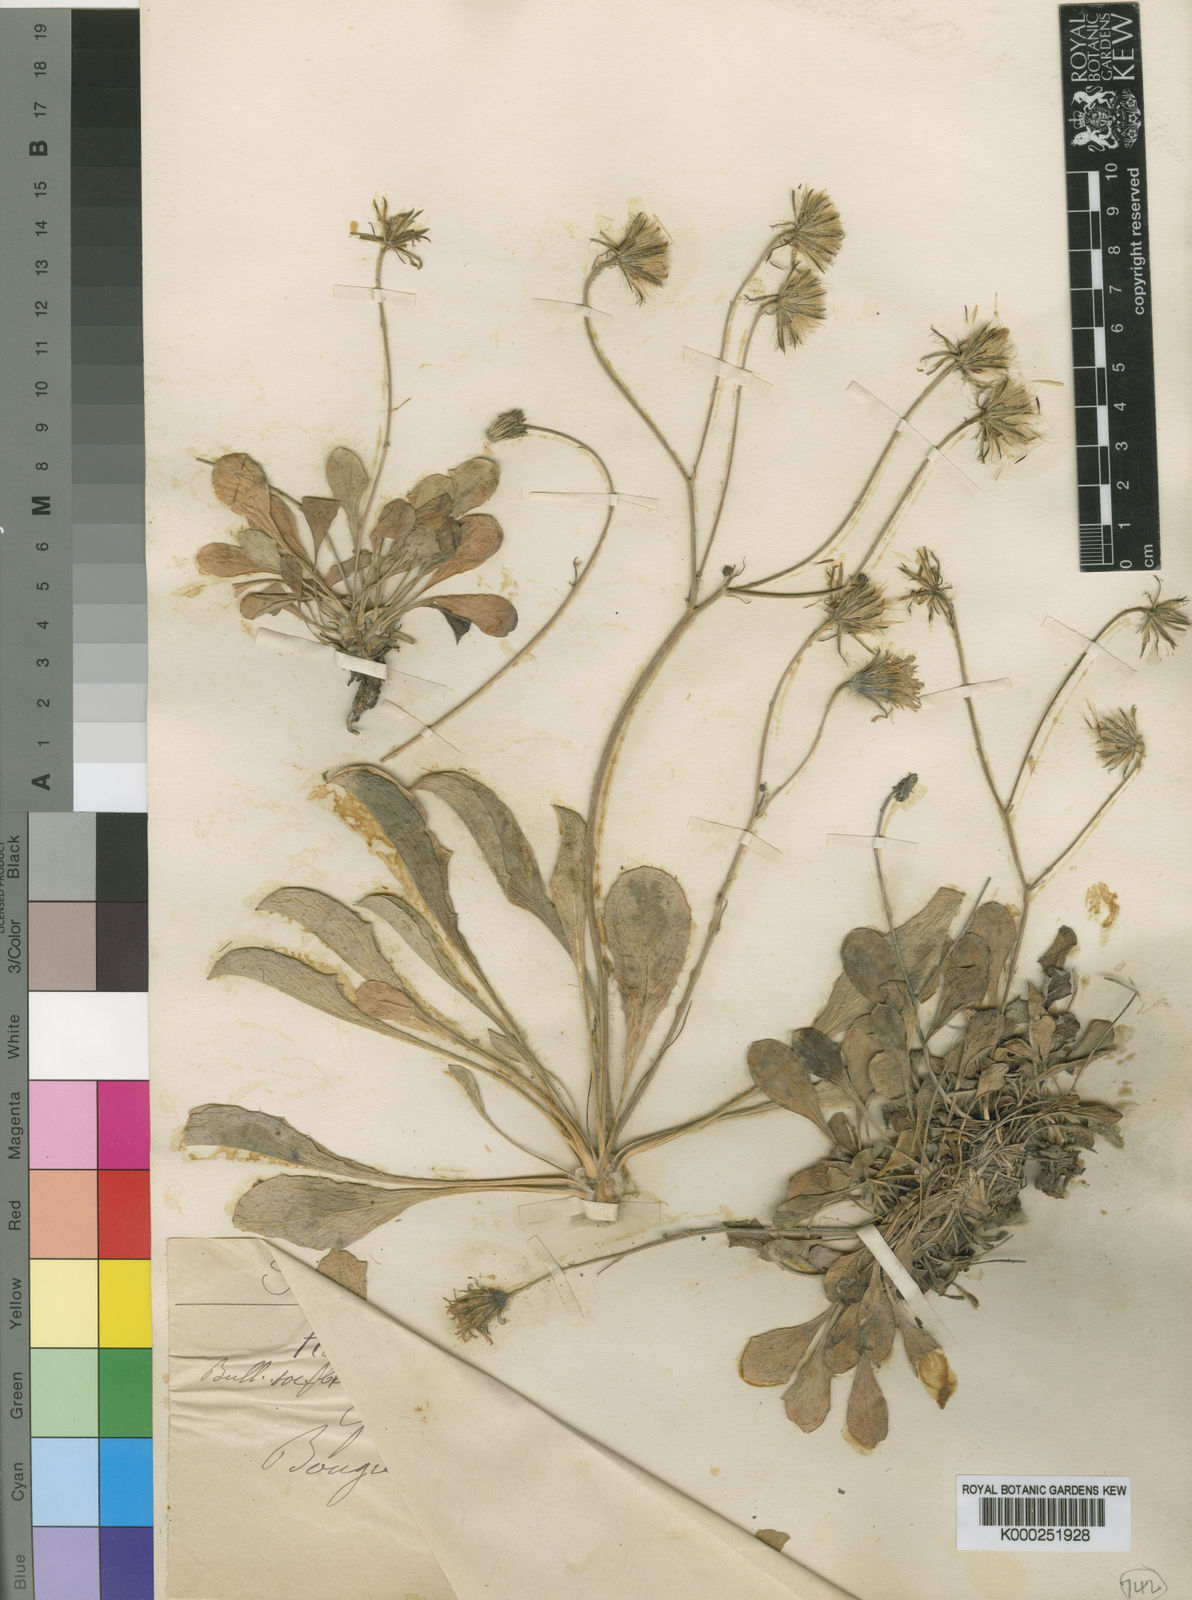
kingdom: Plantae
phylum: Tracheophyta
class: Magnoliopsida
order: Asterales
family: Asteraceae
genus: Achyrophorus
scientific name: Achyrophorus saldensis
